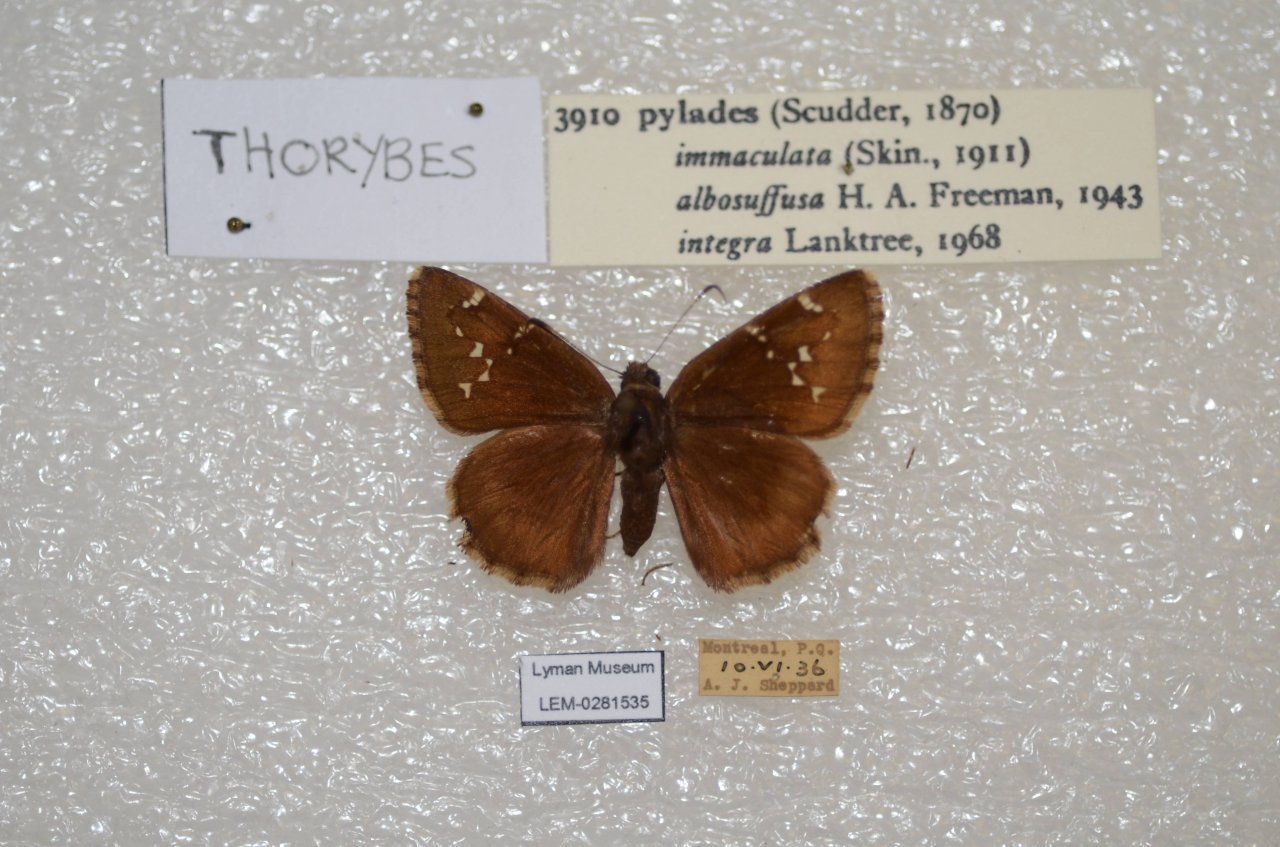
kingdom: Animalia
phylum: Arthropoda
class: Insecta
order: Lepidoptera
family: Hesperiidae
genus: Autochton
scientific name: Autochton
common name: Northern Cloudywing
